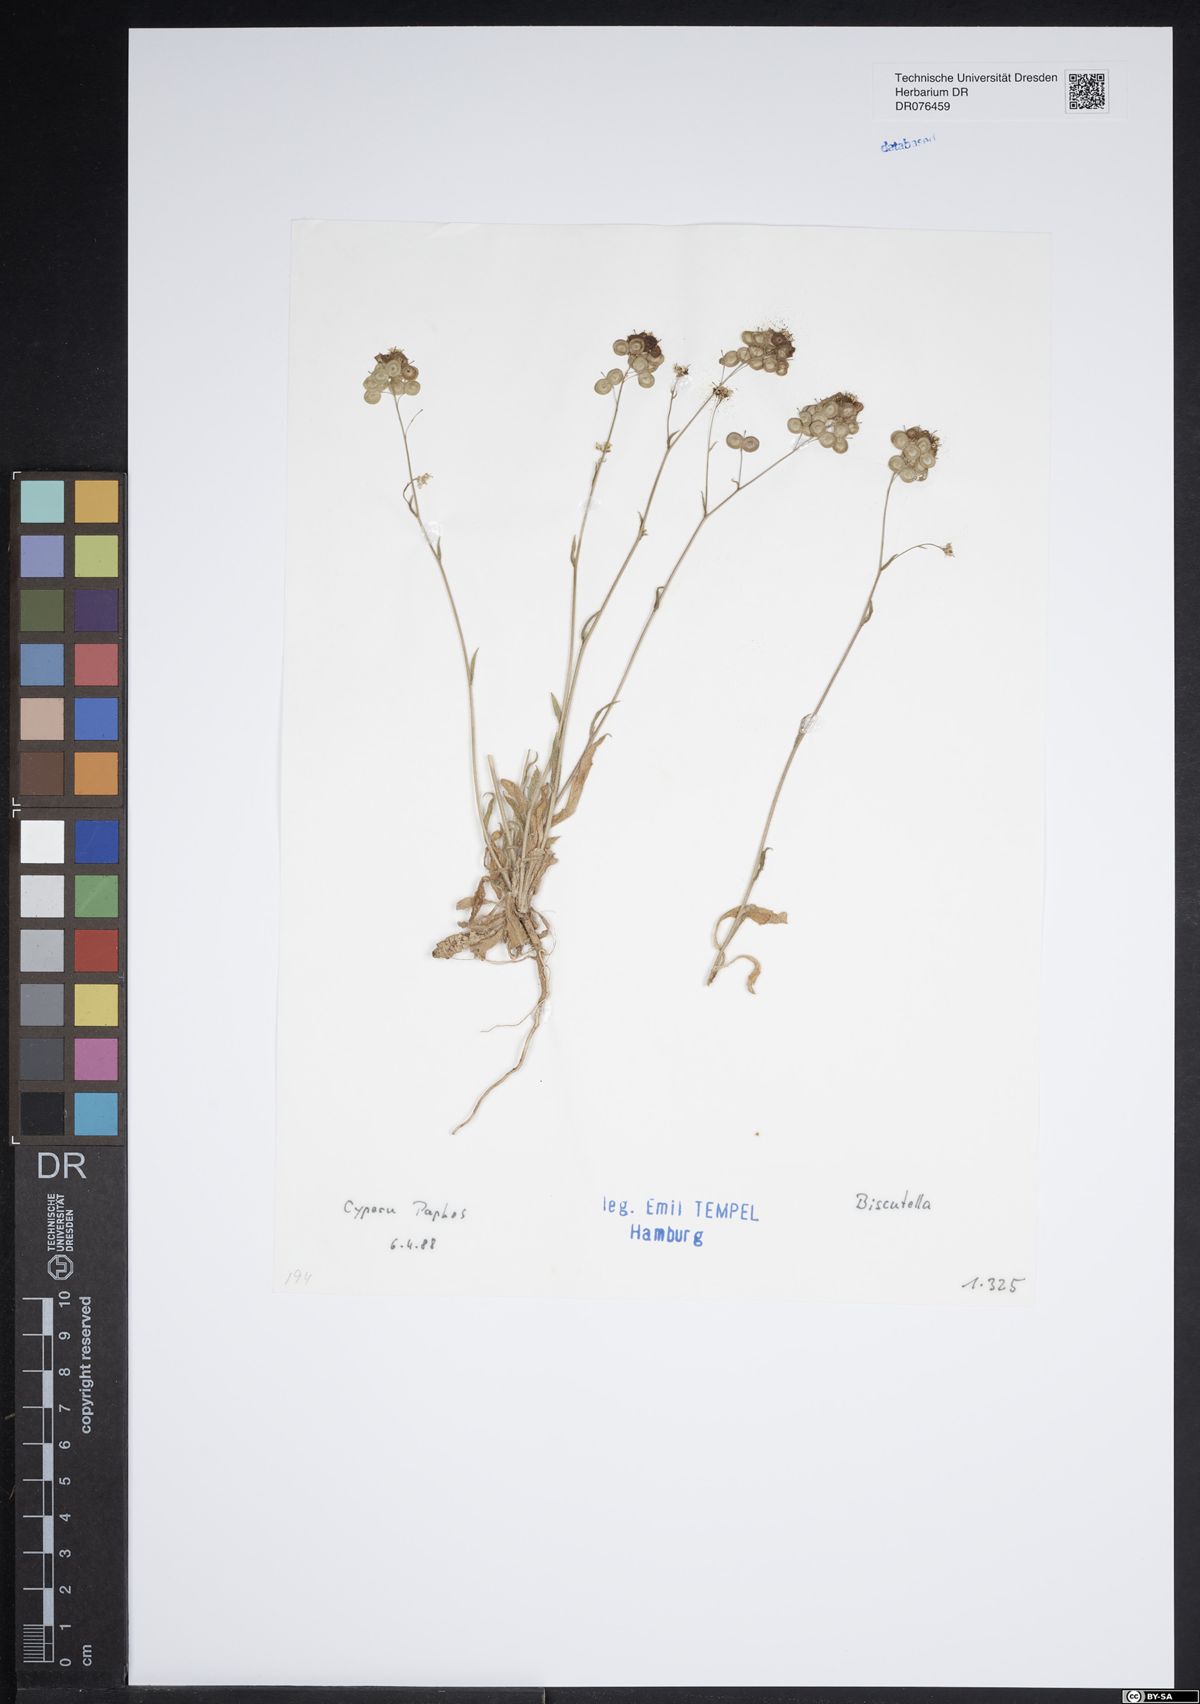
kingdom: Plantae
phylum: Tracheophyta
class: Magnoliopsida
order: Brassicales
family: Brassicaceae
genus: Biscutella
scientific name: Biscutella
